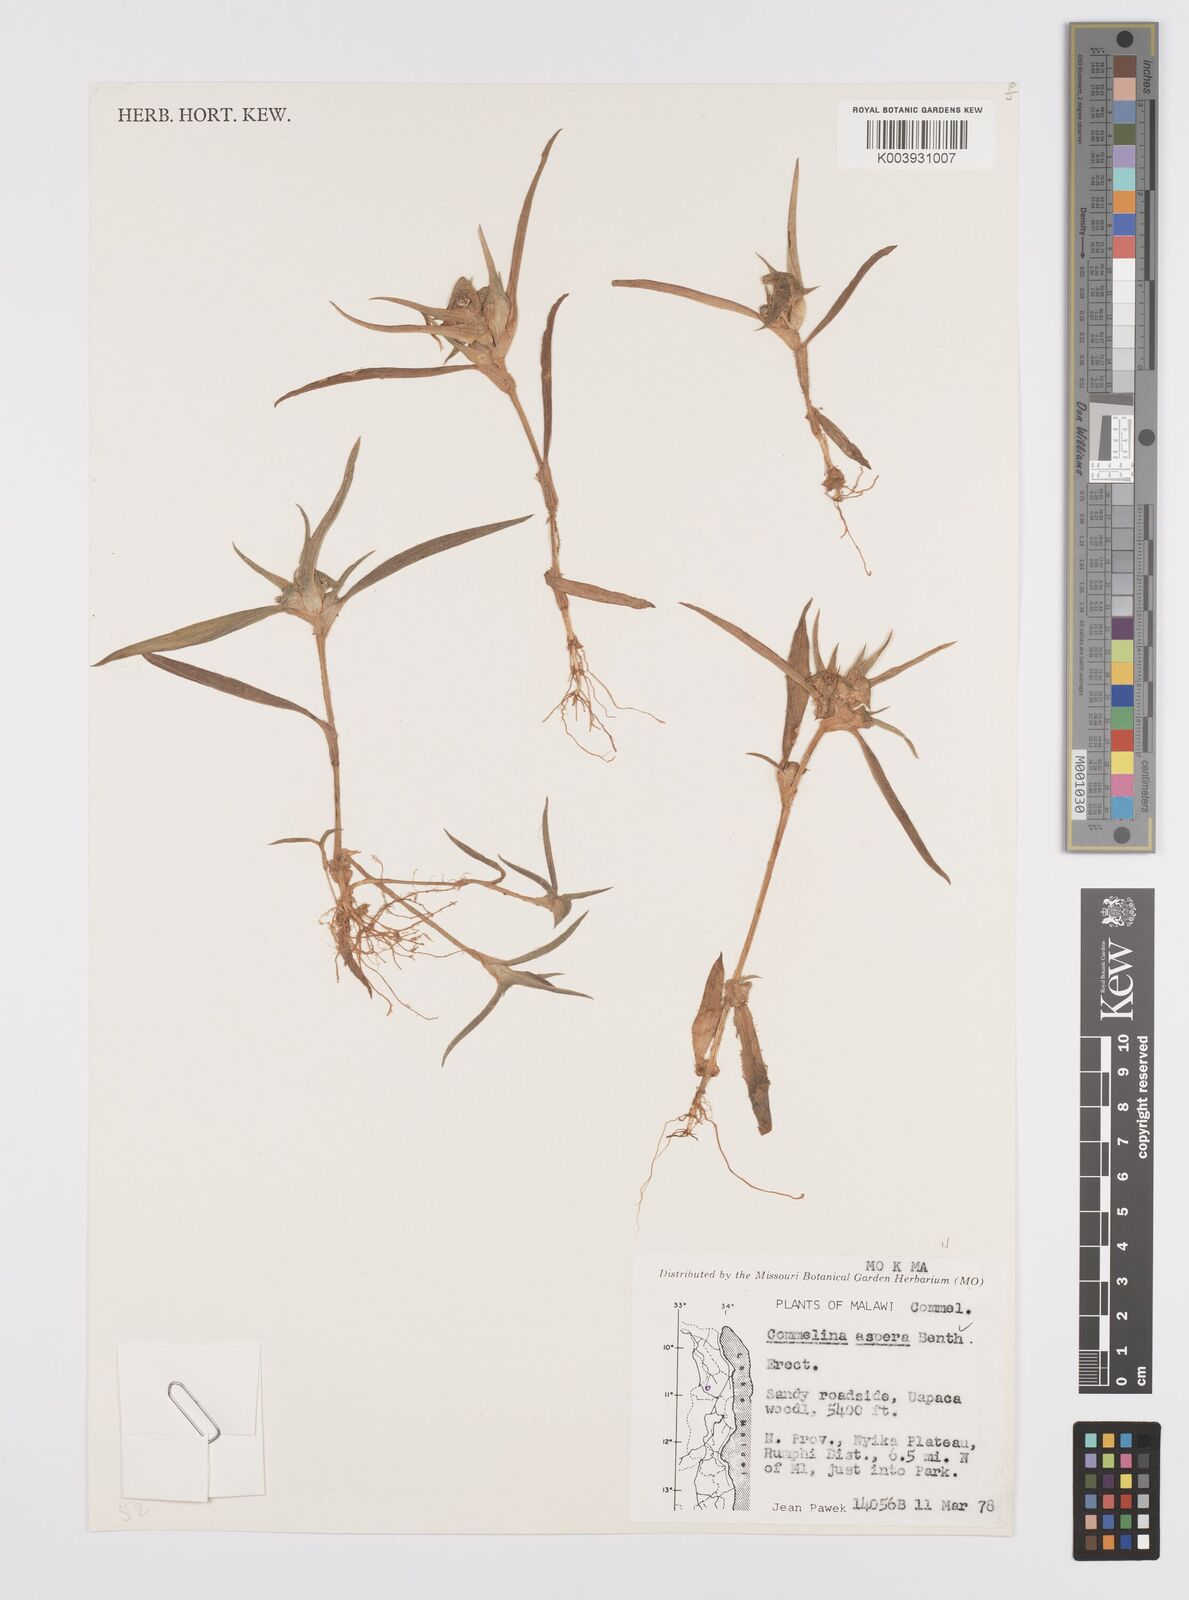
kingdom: Plantae
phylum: Tracheophyta
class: Liliopsida
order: Commelinales
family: Commelinaceae
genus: Commelina
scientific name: Commelina aspera
